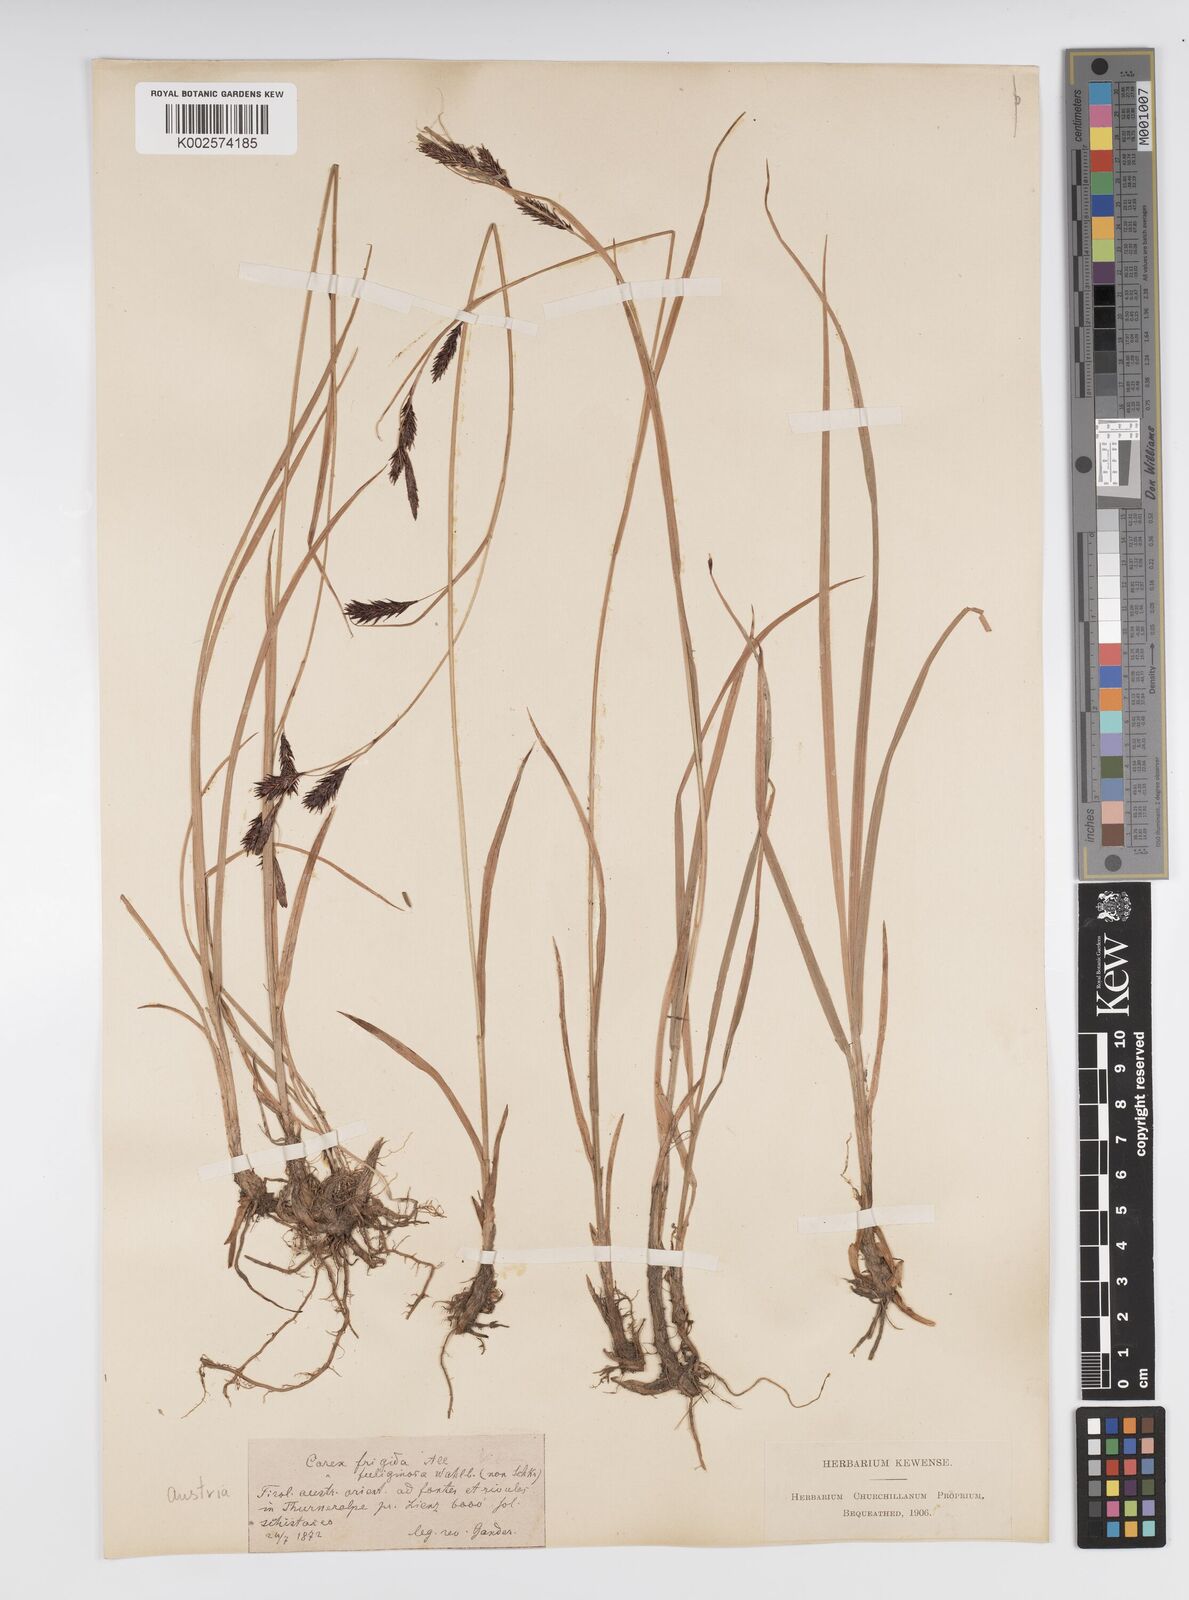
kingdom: Plantae
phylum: Tracheophyta
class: Liliopsida
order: Poales
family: Cyperaceae
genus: Carex
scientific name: Carex frigida
